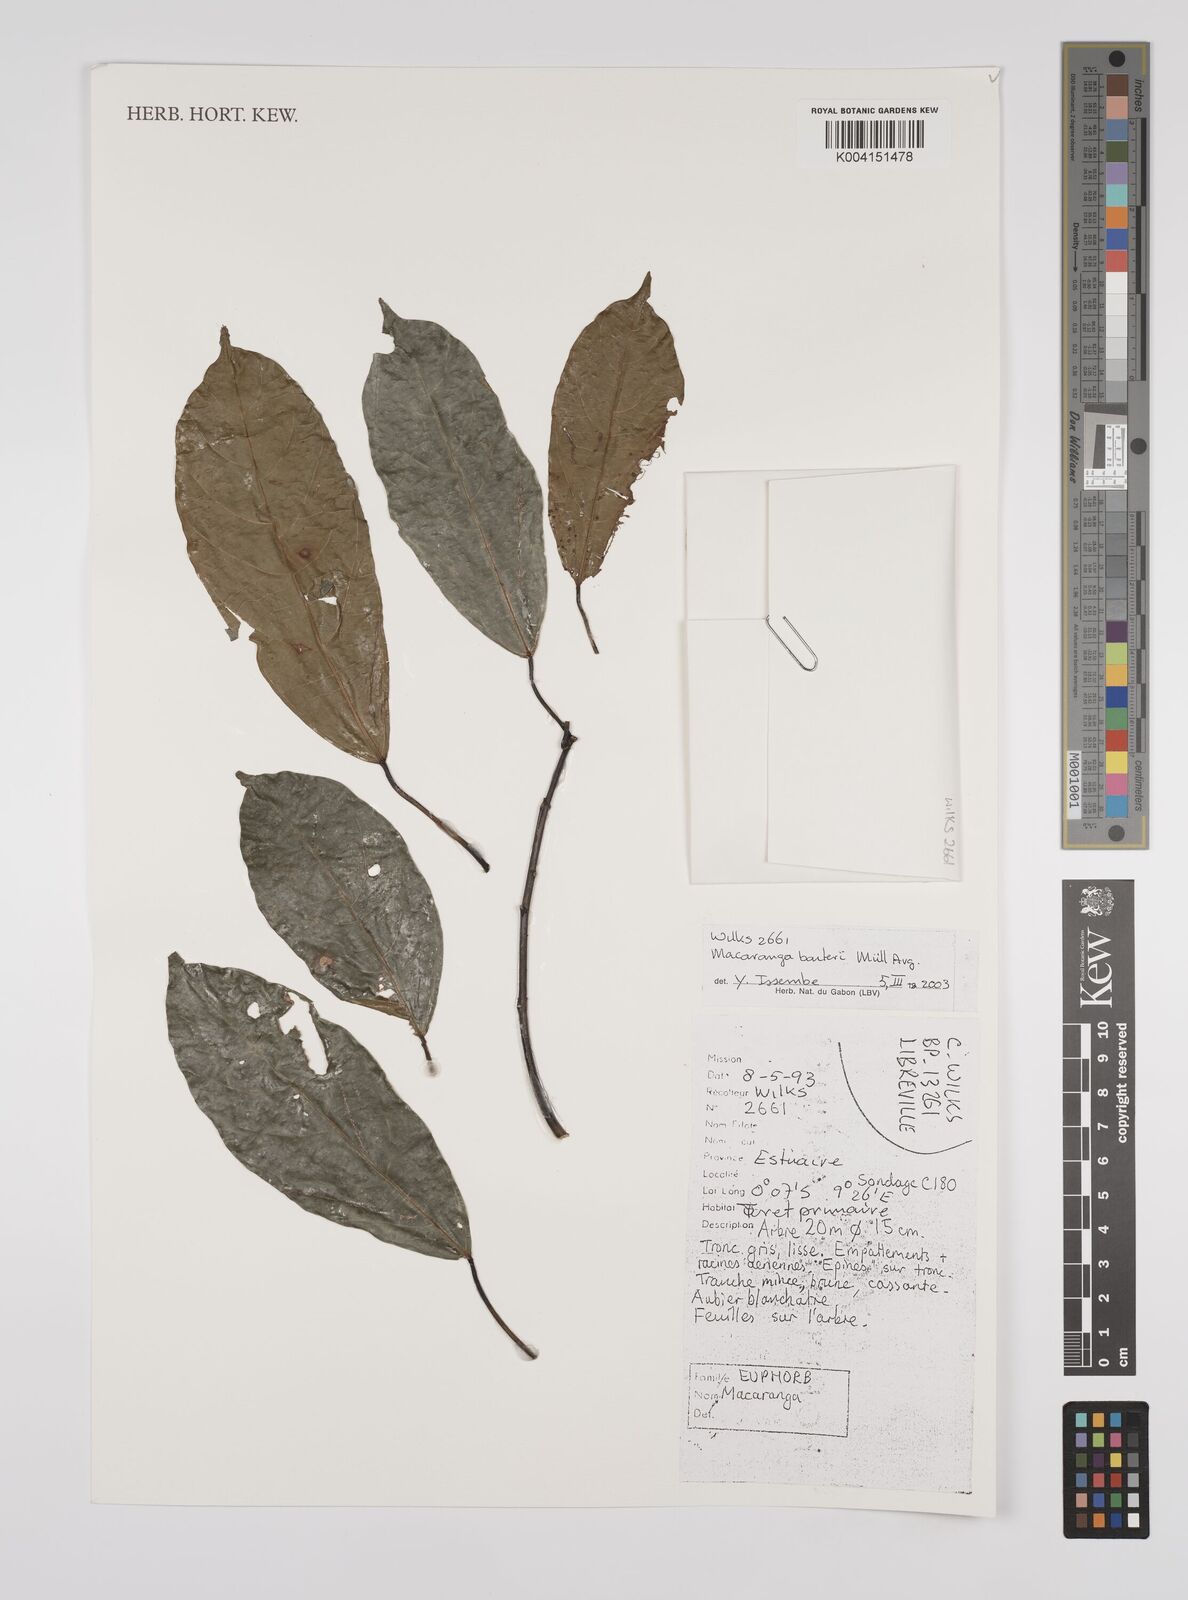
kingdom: Plantae
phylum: Tracheophyta
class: Magnoliopsida
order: Malpighiales
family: Euphorbiaceae
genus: Macaranga
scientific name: Macaranga barteri
